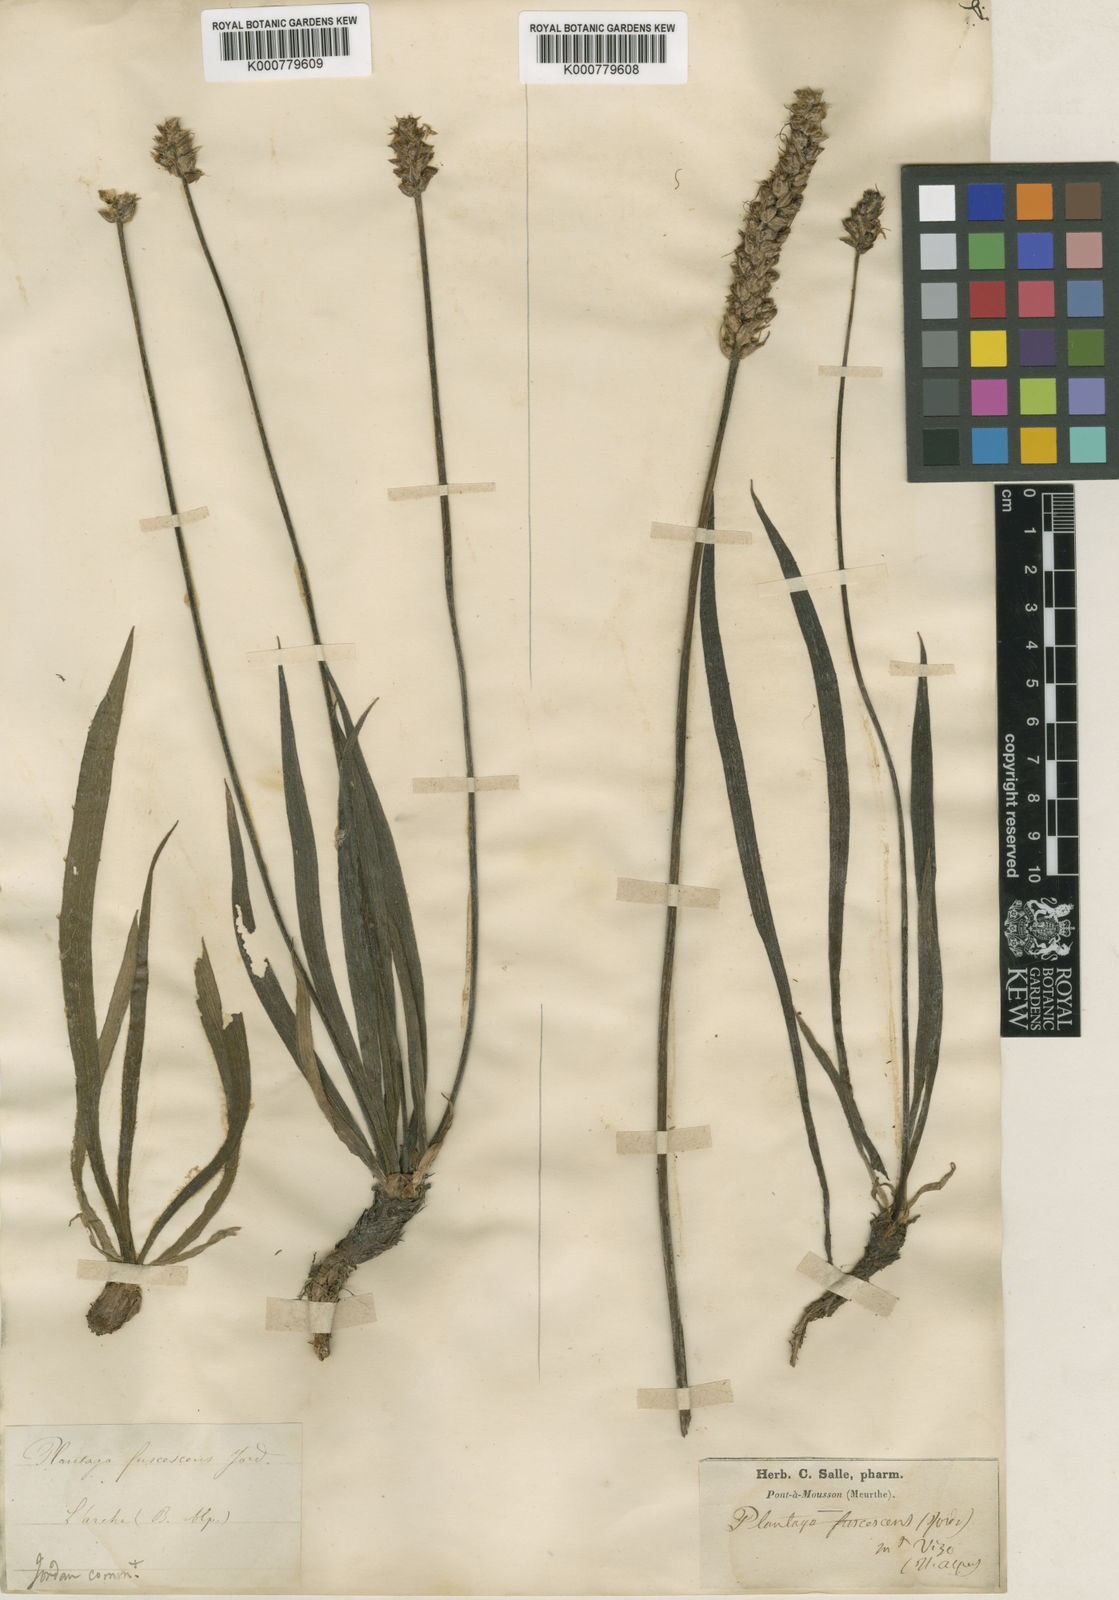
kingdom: Plantae
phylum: Tracheophyta
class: Magnoliopsida
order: Lamiales
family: Plantaginaceae
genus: Plantago
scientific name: Plantago atrata
